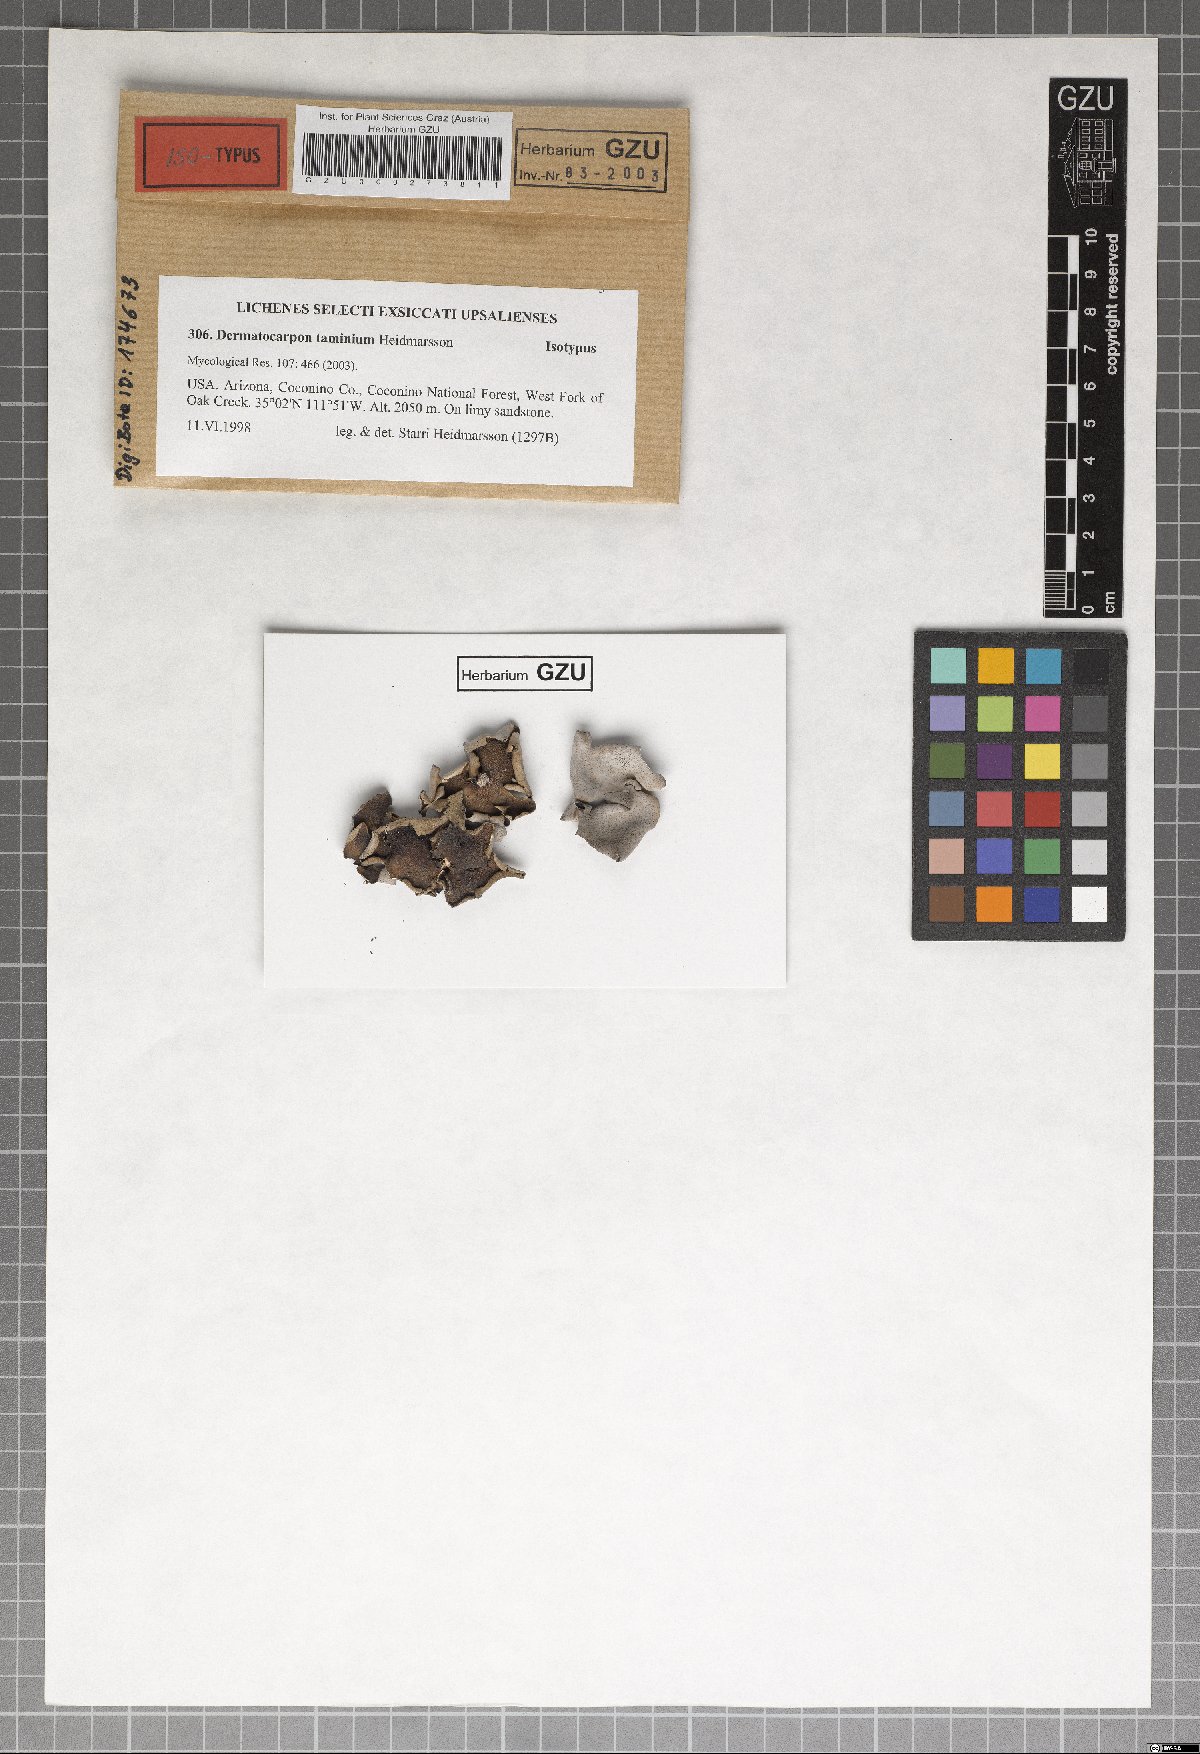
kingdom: Fungi
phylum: Ascomycota
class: Eurotiomycetes
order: Verrucariales
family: Verrucariaceae
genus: Dermatocarpon
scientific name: Dermatocarpon taminium
